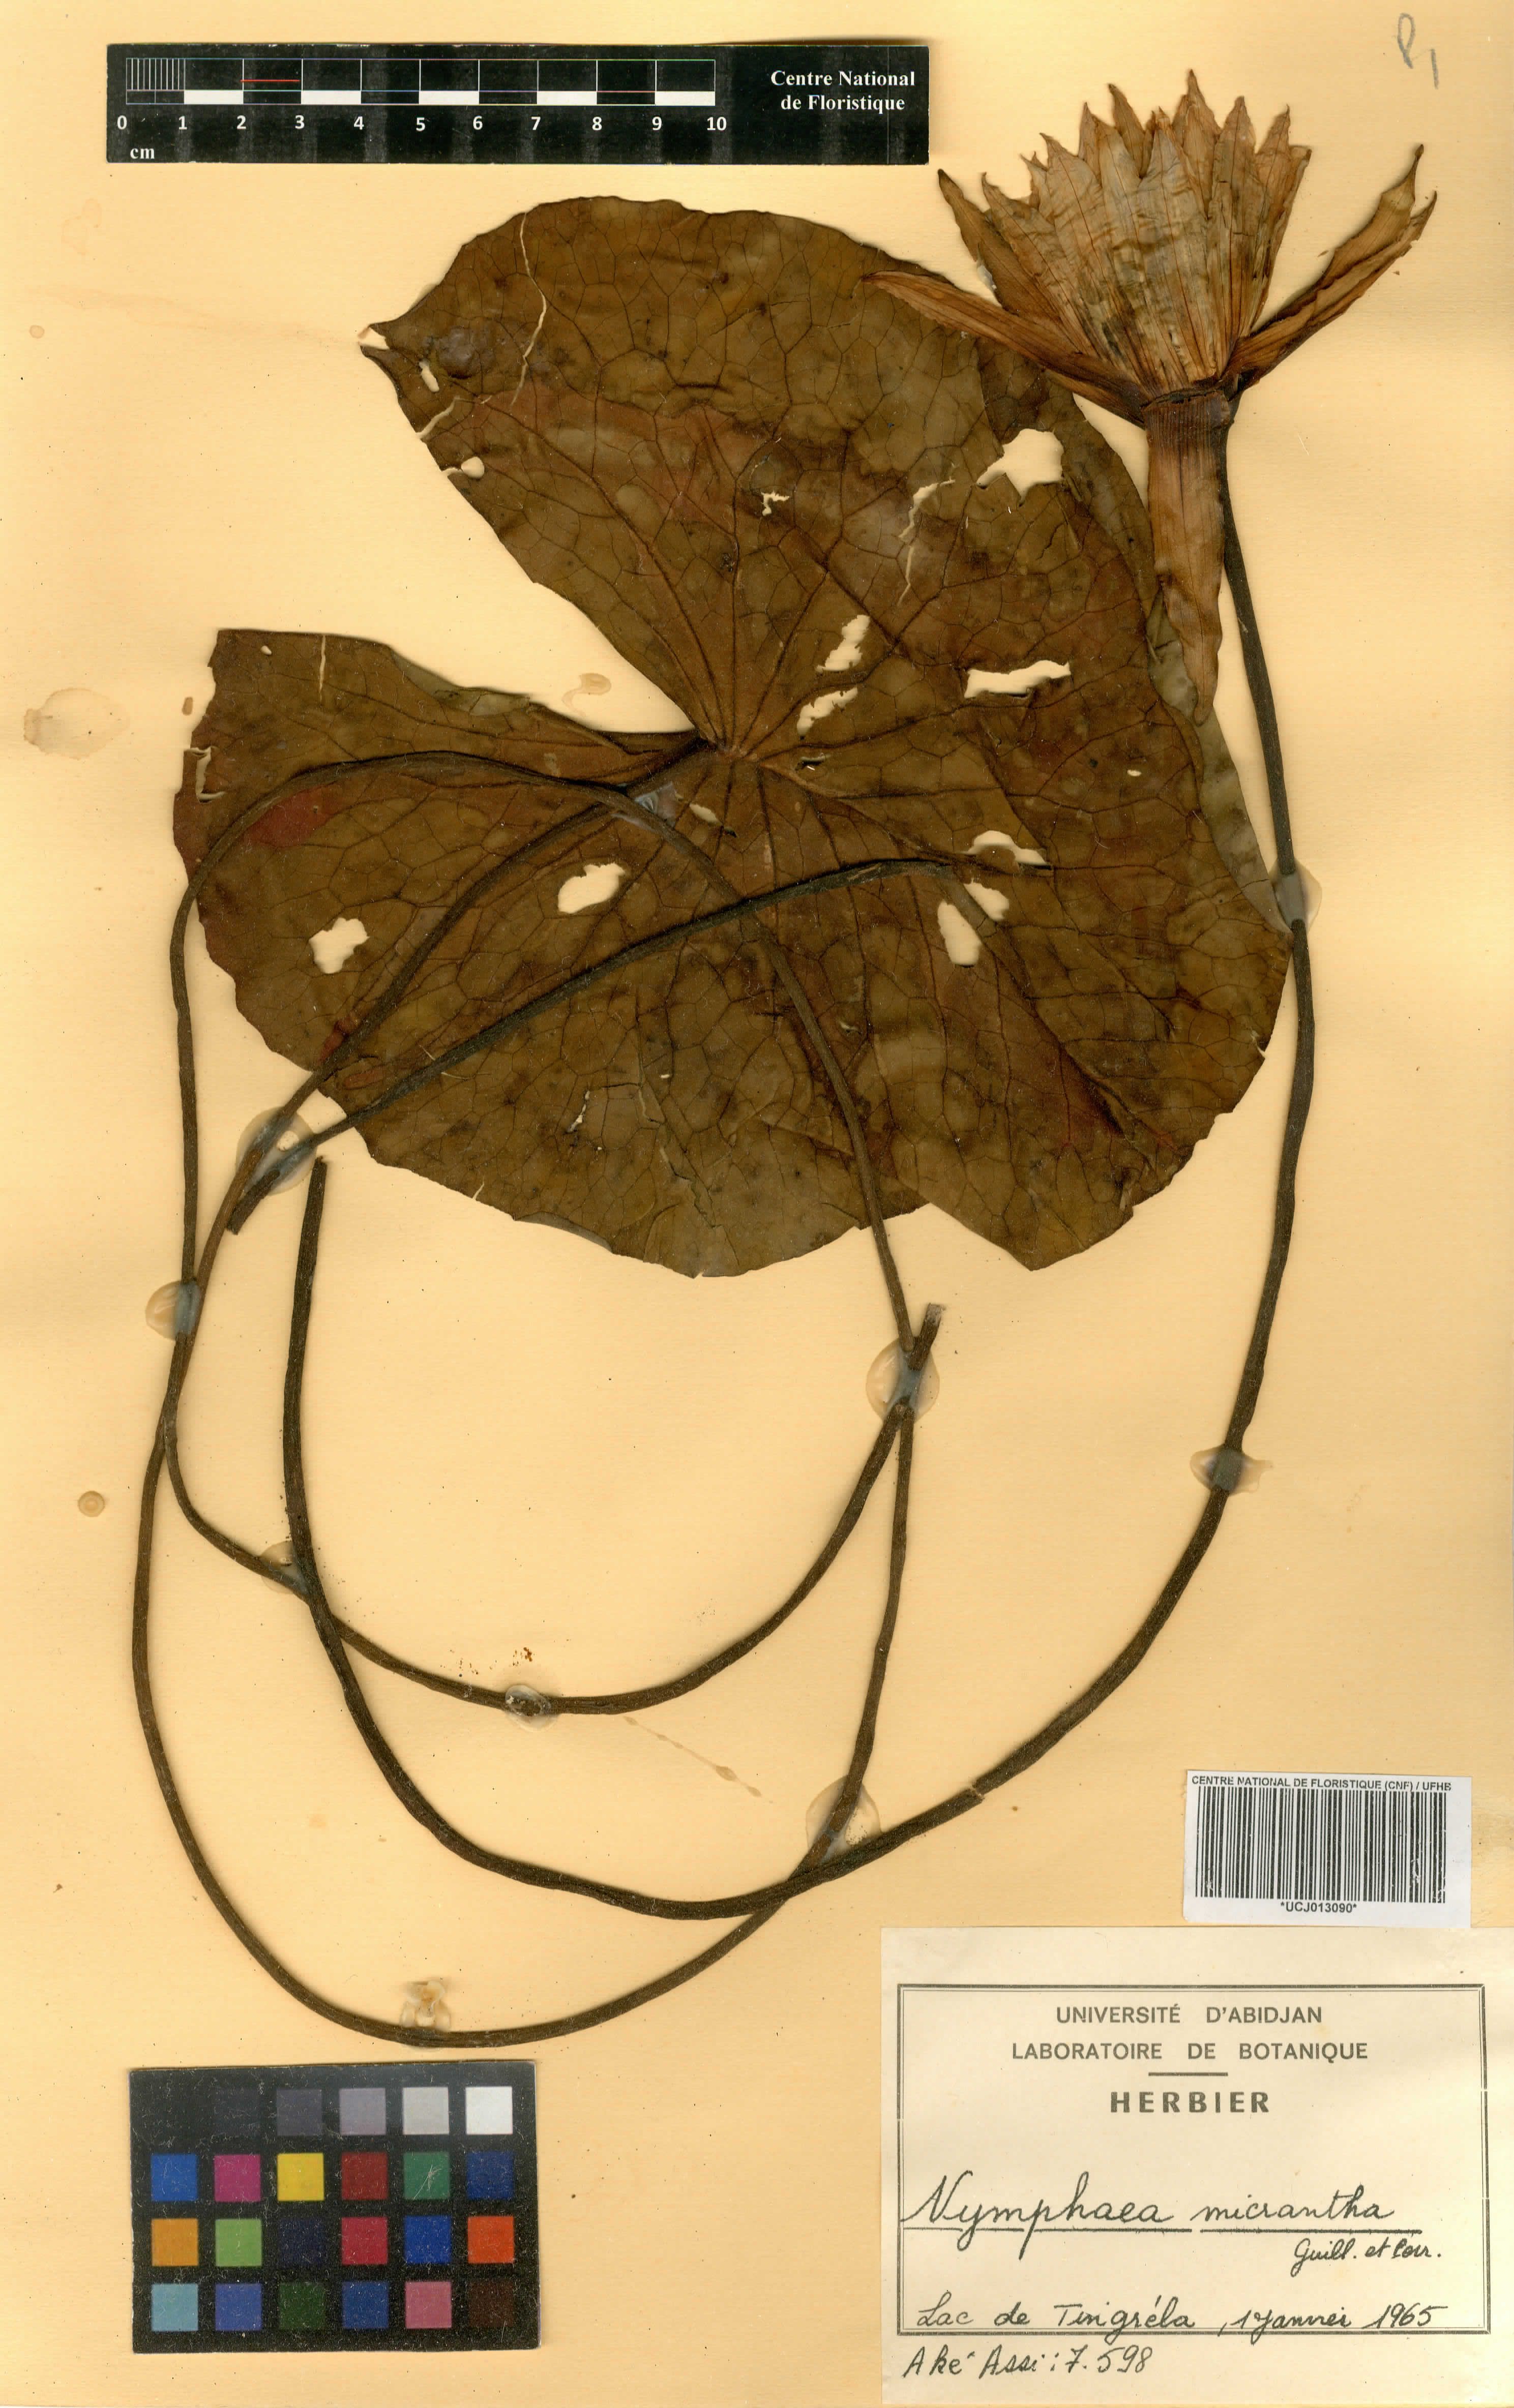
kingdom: Plantae
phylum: Tracheophyta
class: Magnoliopsida
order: Nymphaeales
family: Nymphaeaceae
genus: Nymphaea
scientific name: Nymphaea micrantha
